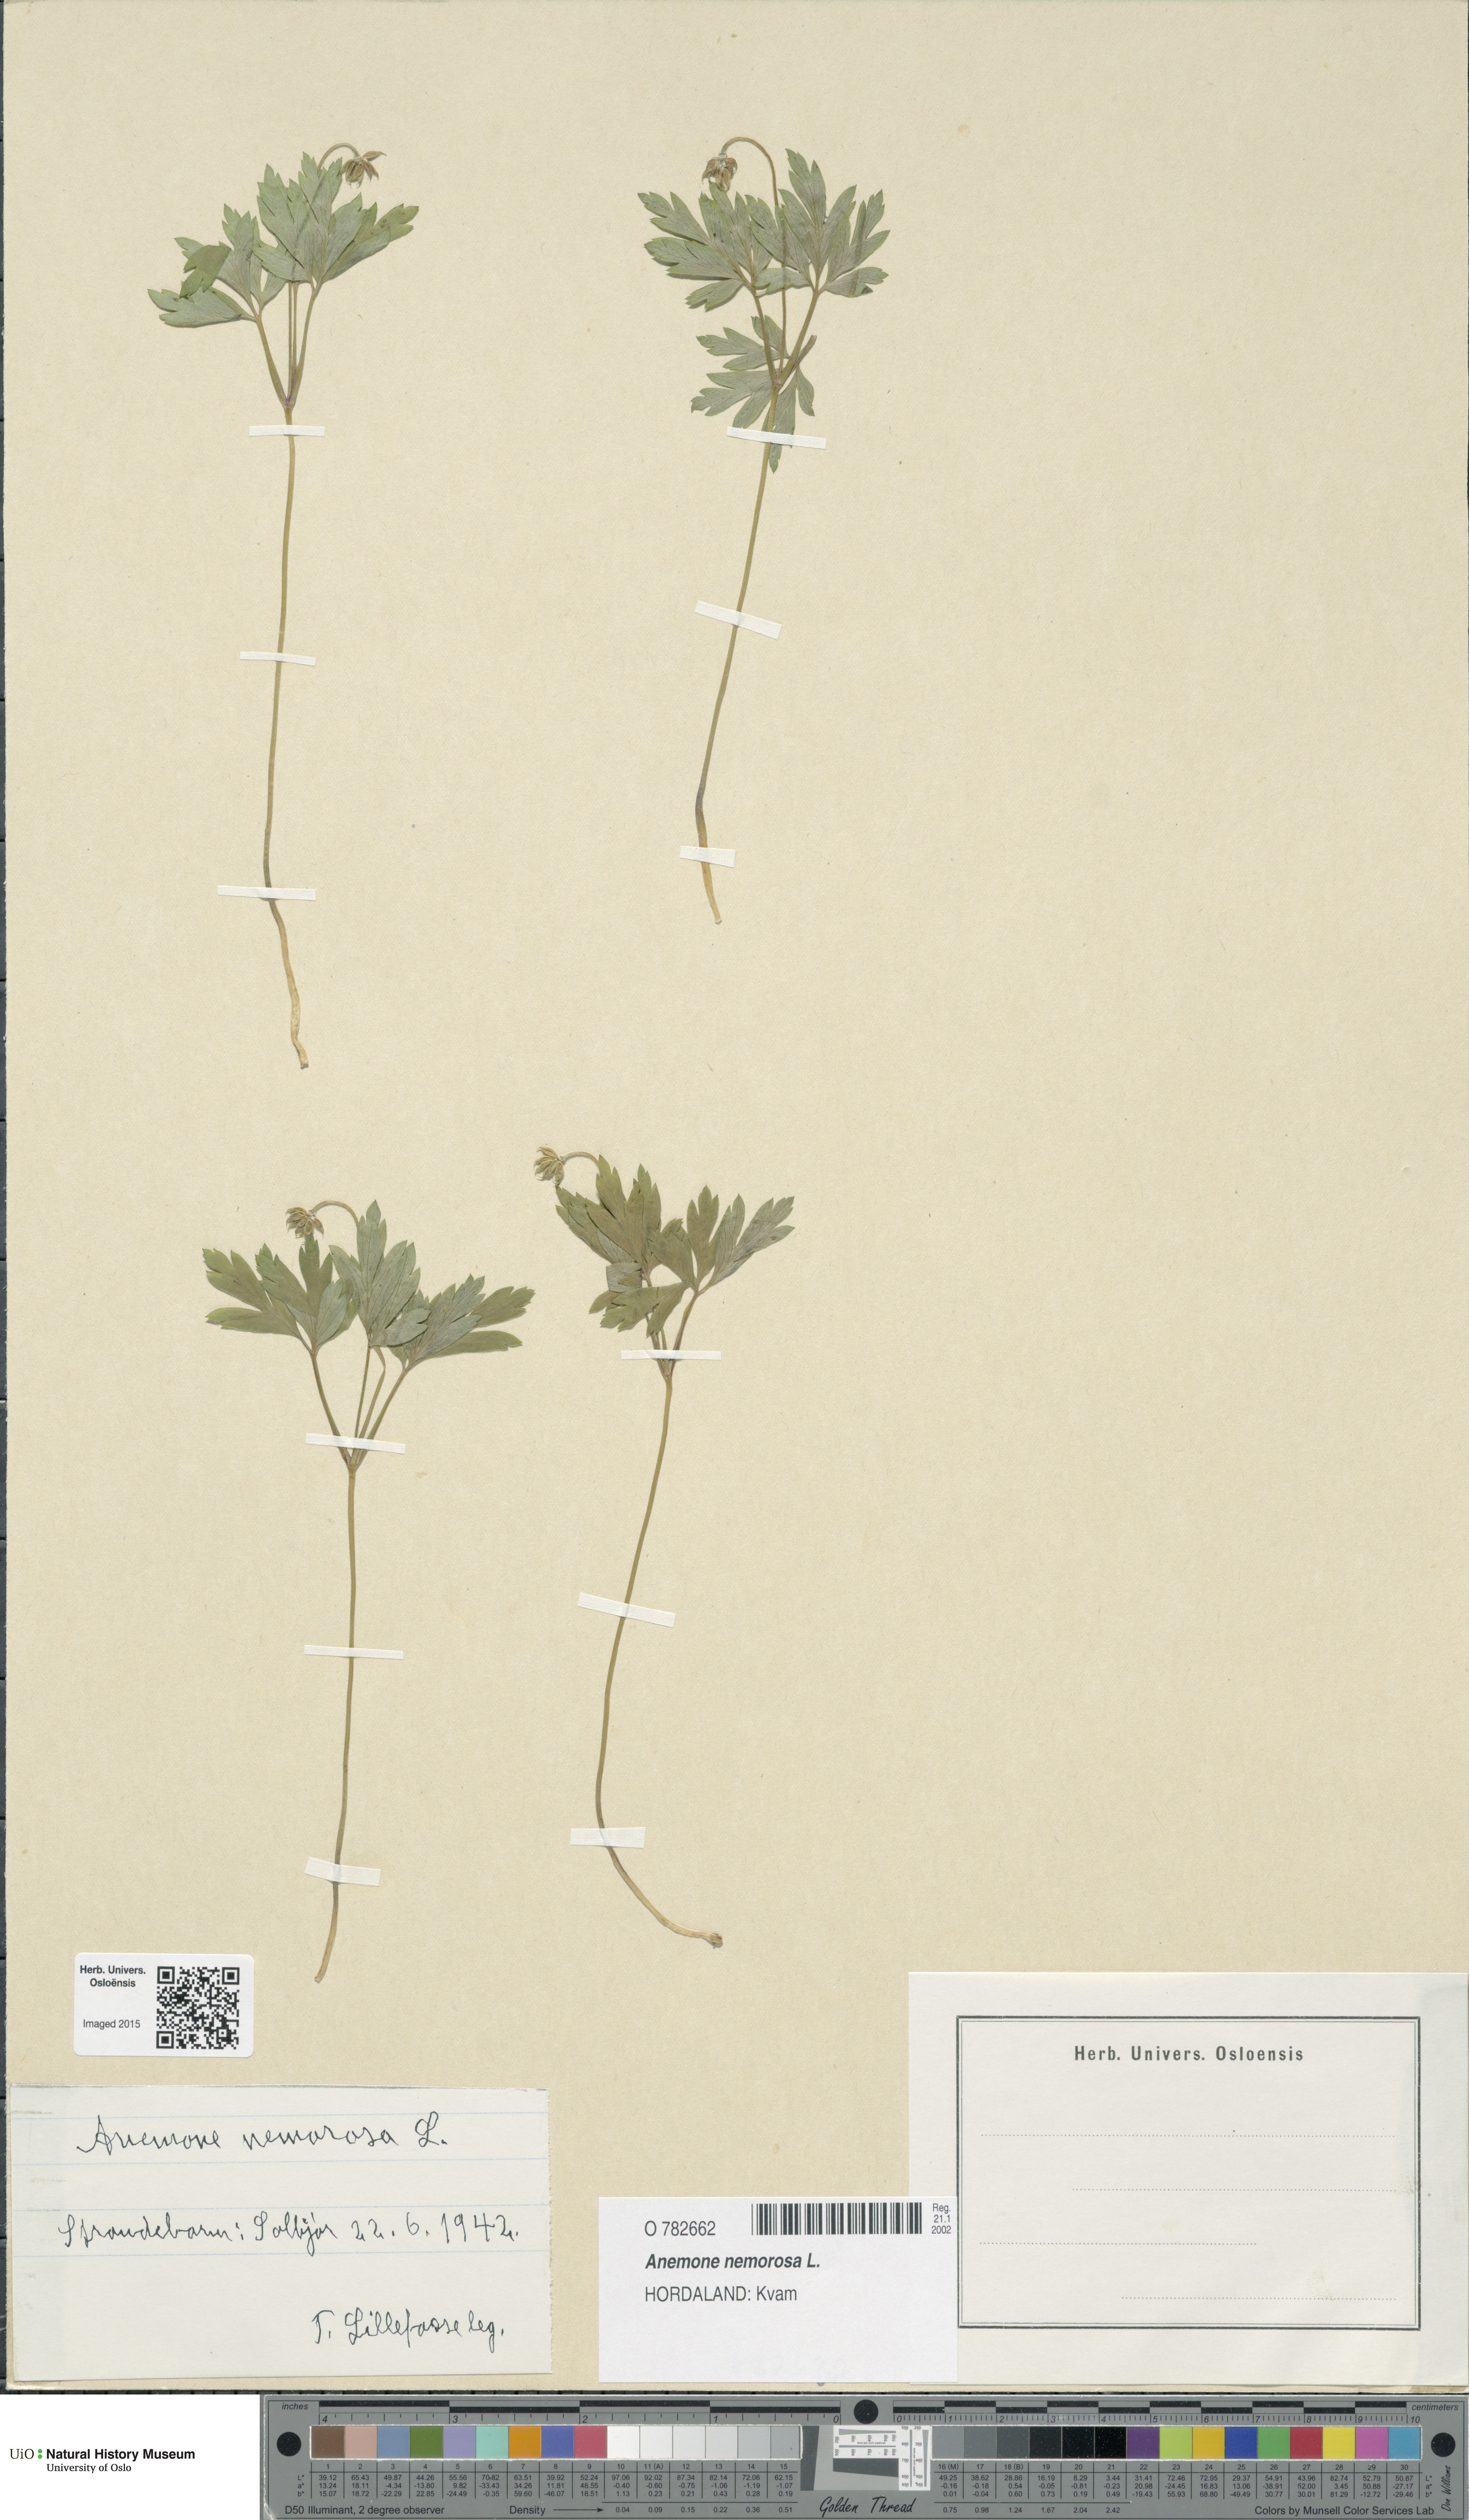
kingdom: Plantae
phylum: Tracheophyta
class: Magnoliopsida
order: Ranunculales
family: Ranunculaceae
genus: Anemone
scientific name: Anemone nemorosa
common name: Wood anemone
